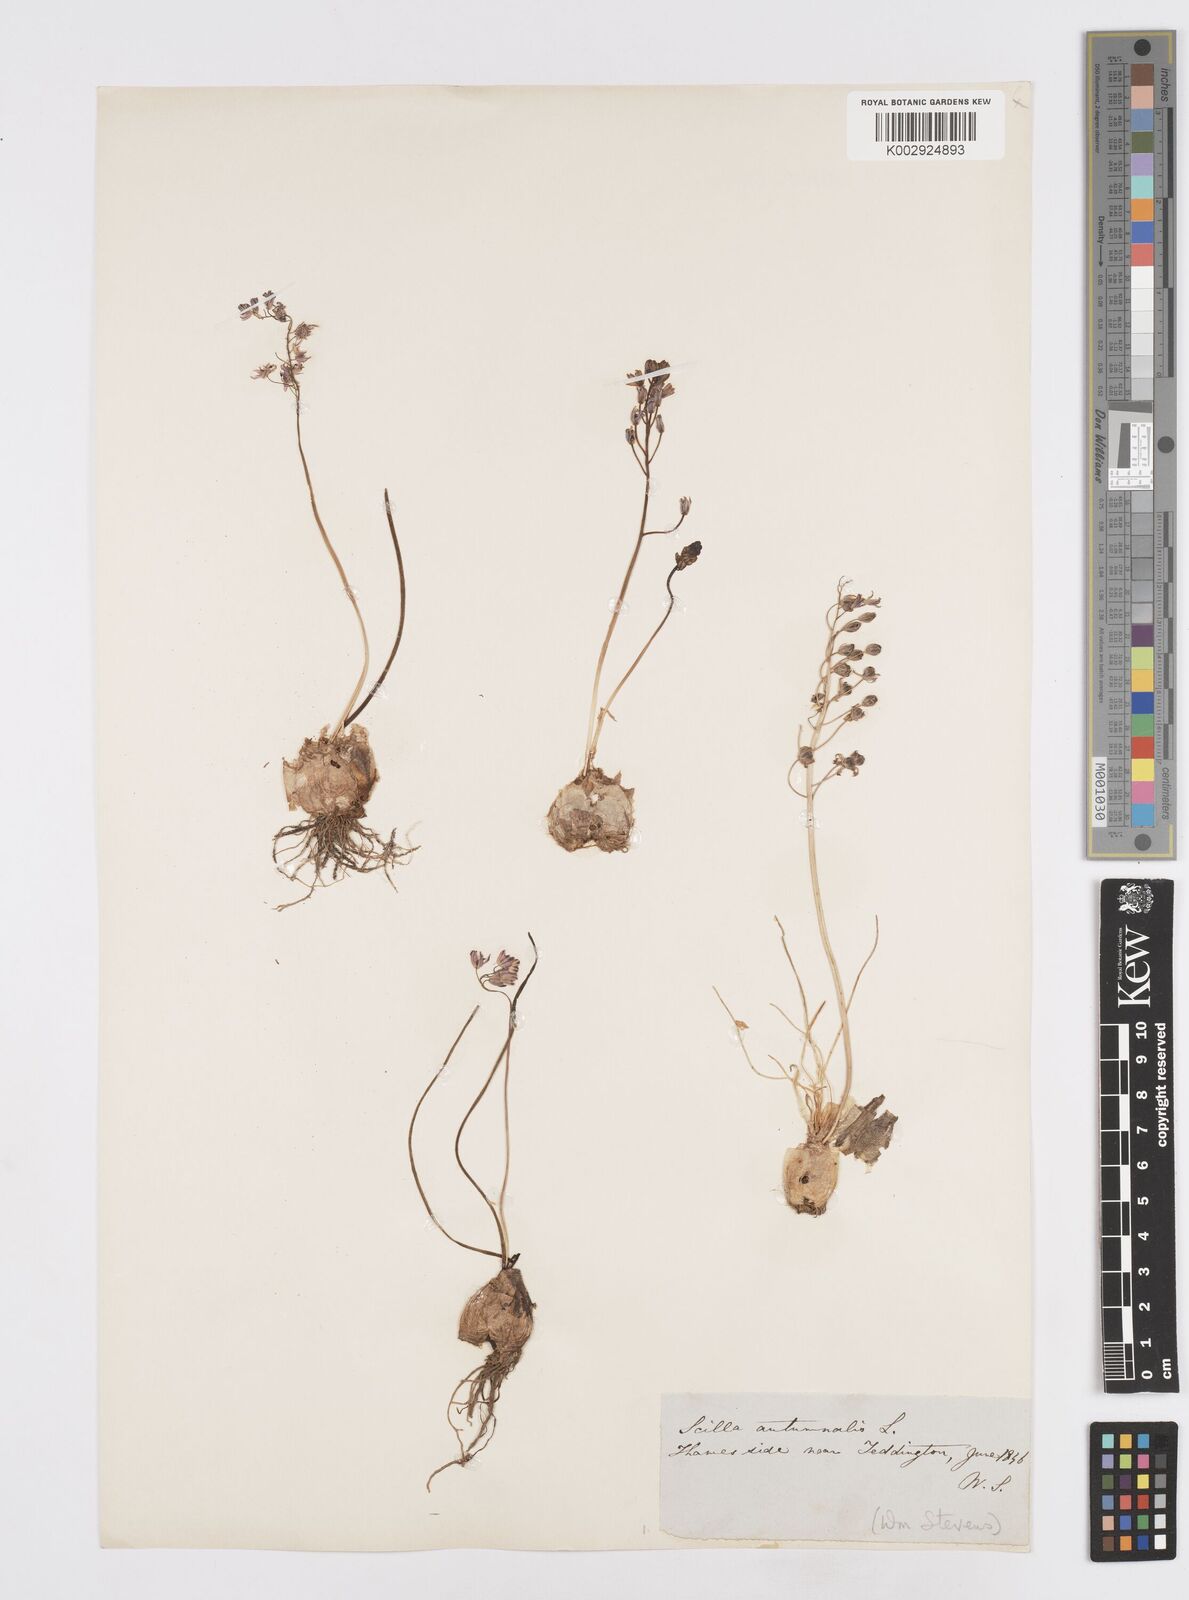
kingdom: Plantae
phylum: Tracheophyta
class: Liliopsida
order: Asparagales
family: Asparagaceae
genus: Prospero
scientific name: Prospero autumnale
